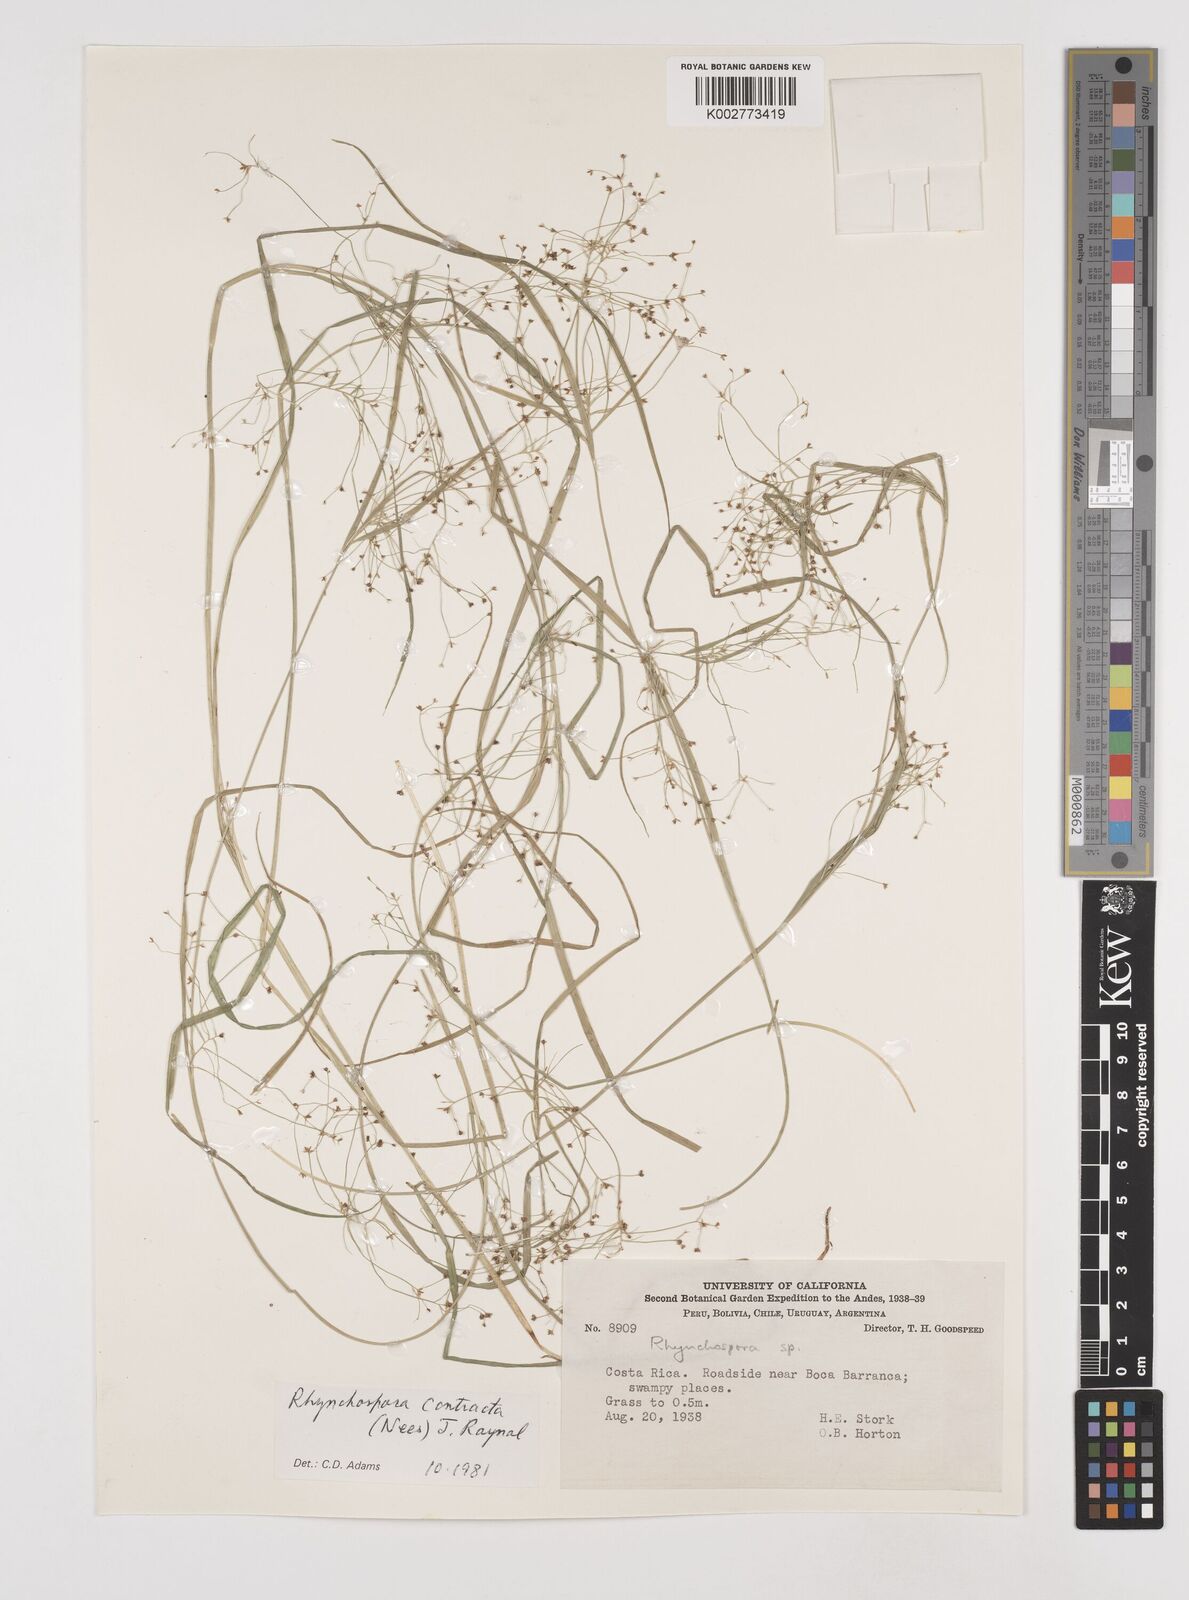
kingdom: Plantae
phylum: Tracheophyta
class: Liliopsida
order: Poales
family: Cyperaceae
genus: Rhynchospora
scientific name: Rhynchospora contracta
